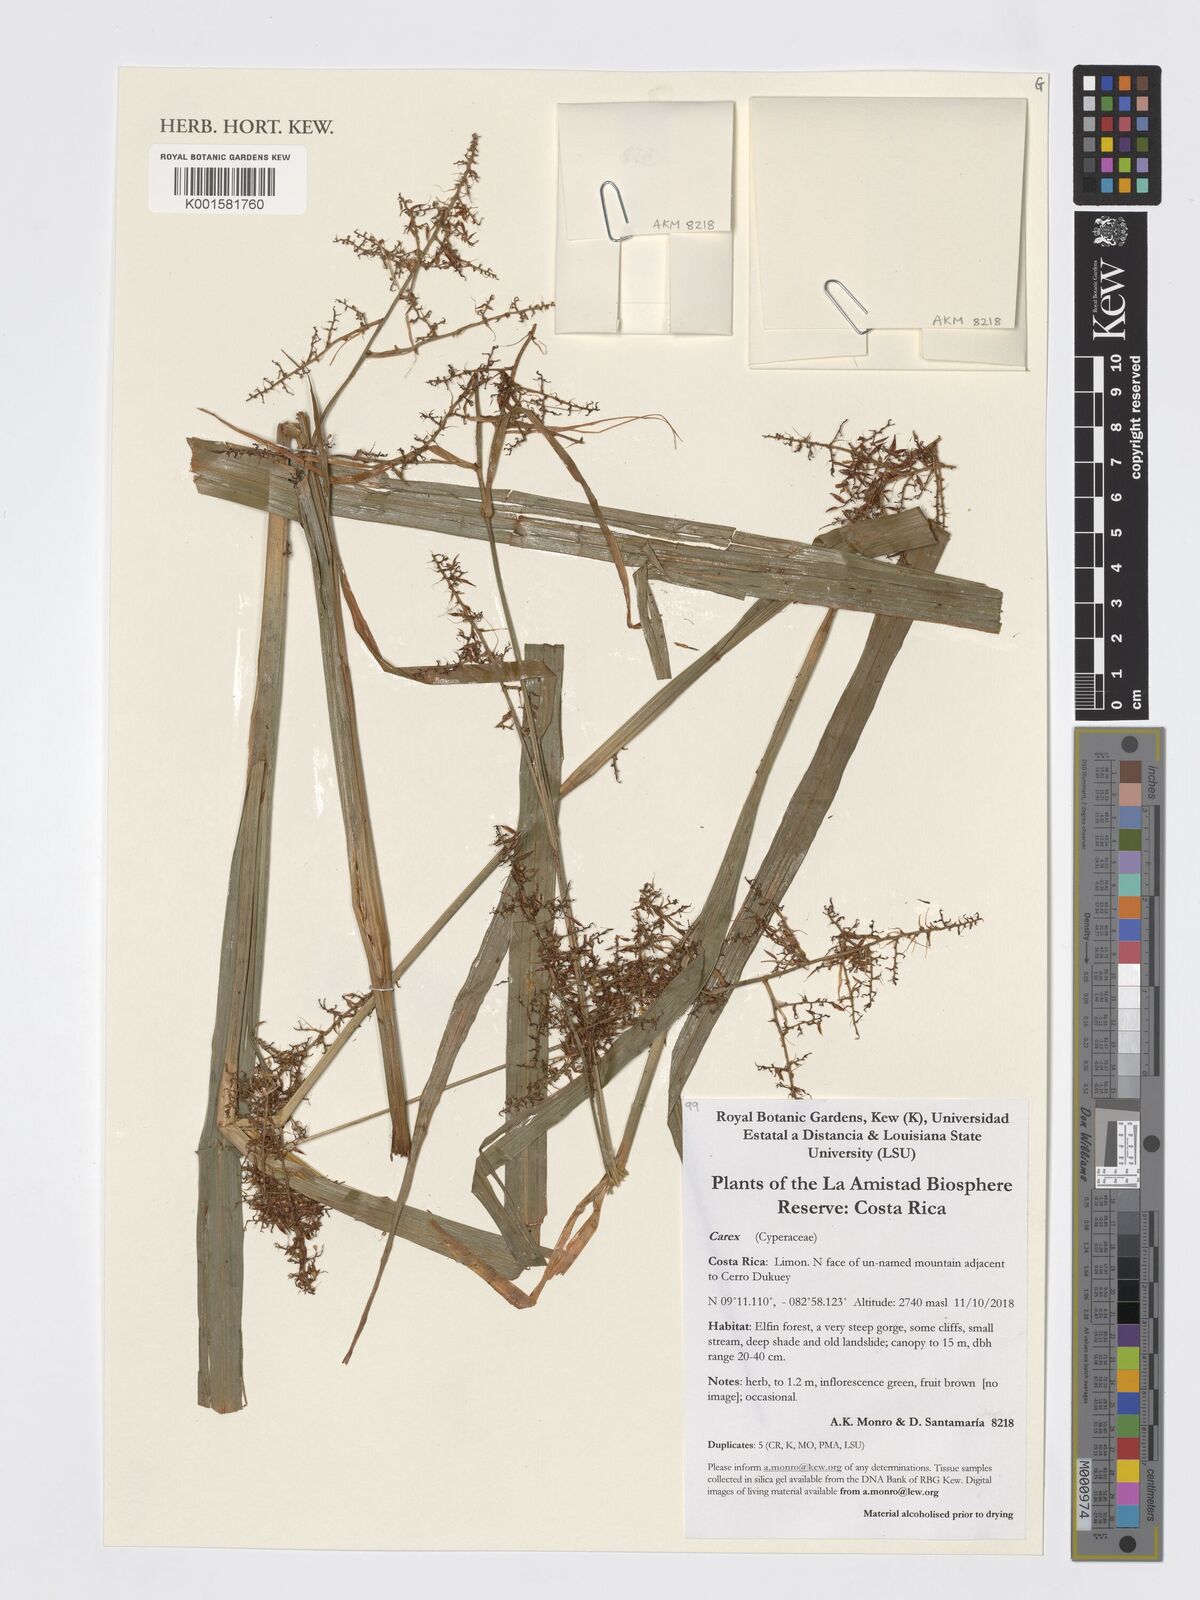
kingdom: Plantae
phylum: Tracheophyta
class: Liliopsida
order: Poales
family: Cyperaceae
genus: Carex
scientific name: Carex
